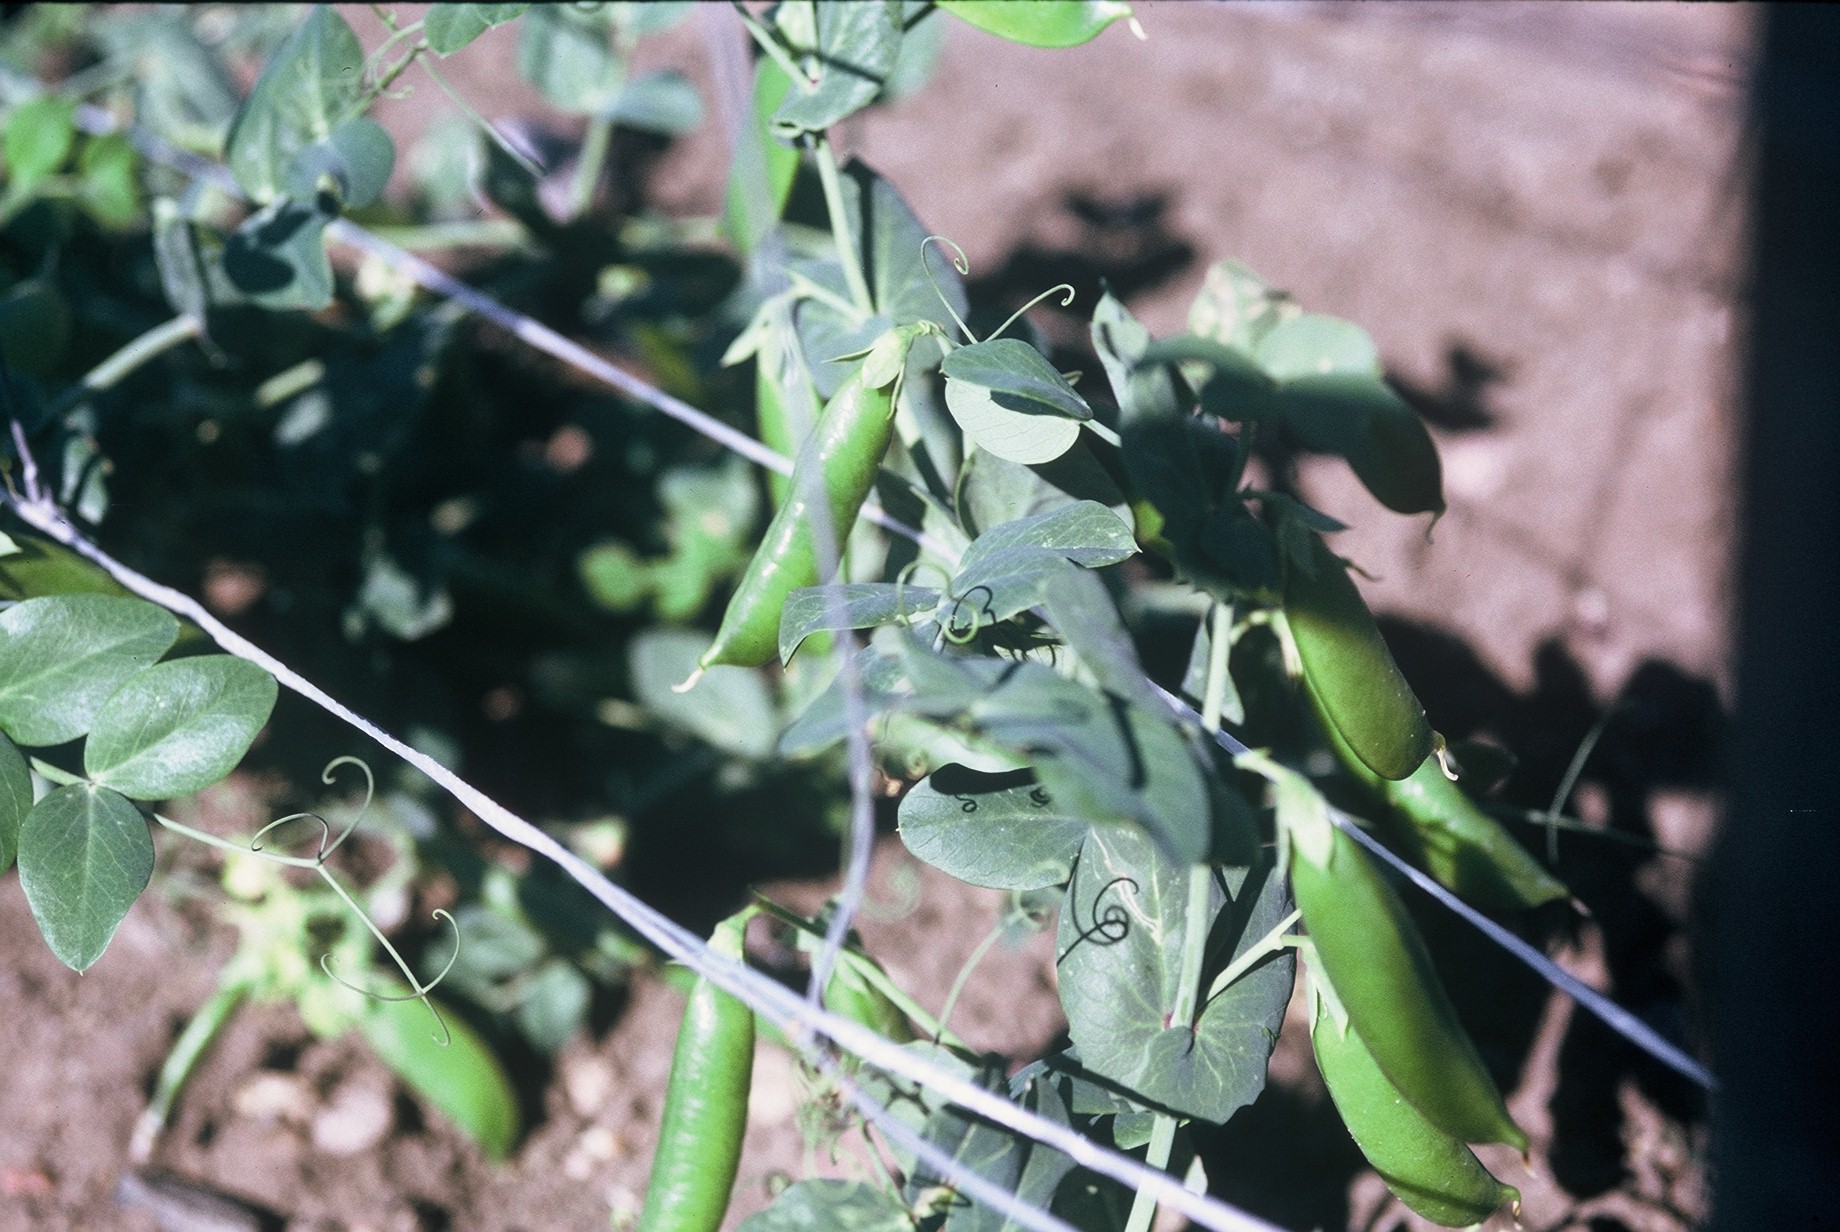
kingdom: Plantae
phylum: Tracheophyta
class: Magnoliopsida
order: Fabales
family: Fabaceae
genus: Lathyrus
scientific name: Lathyrus oleraceus
